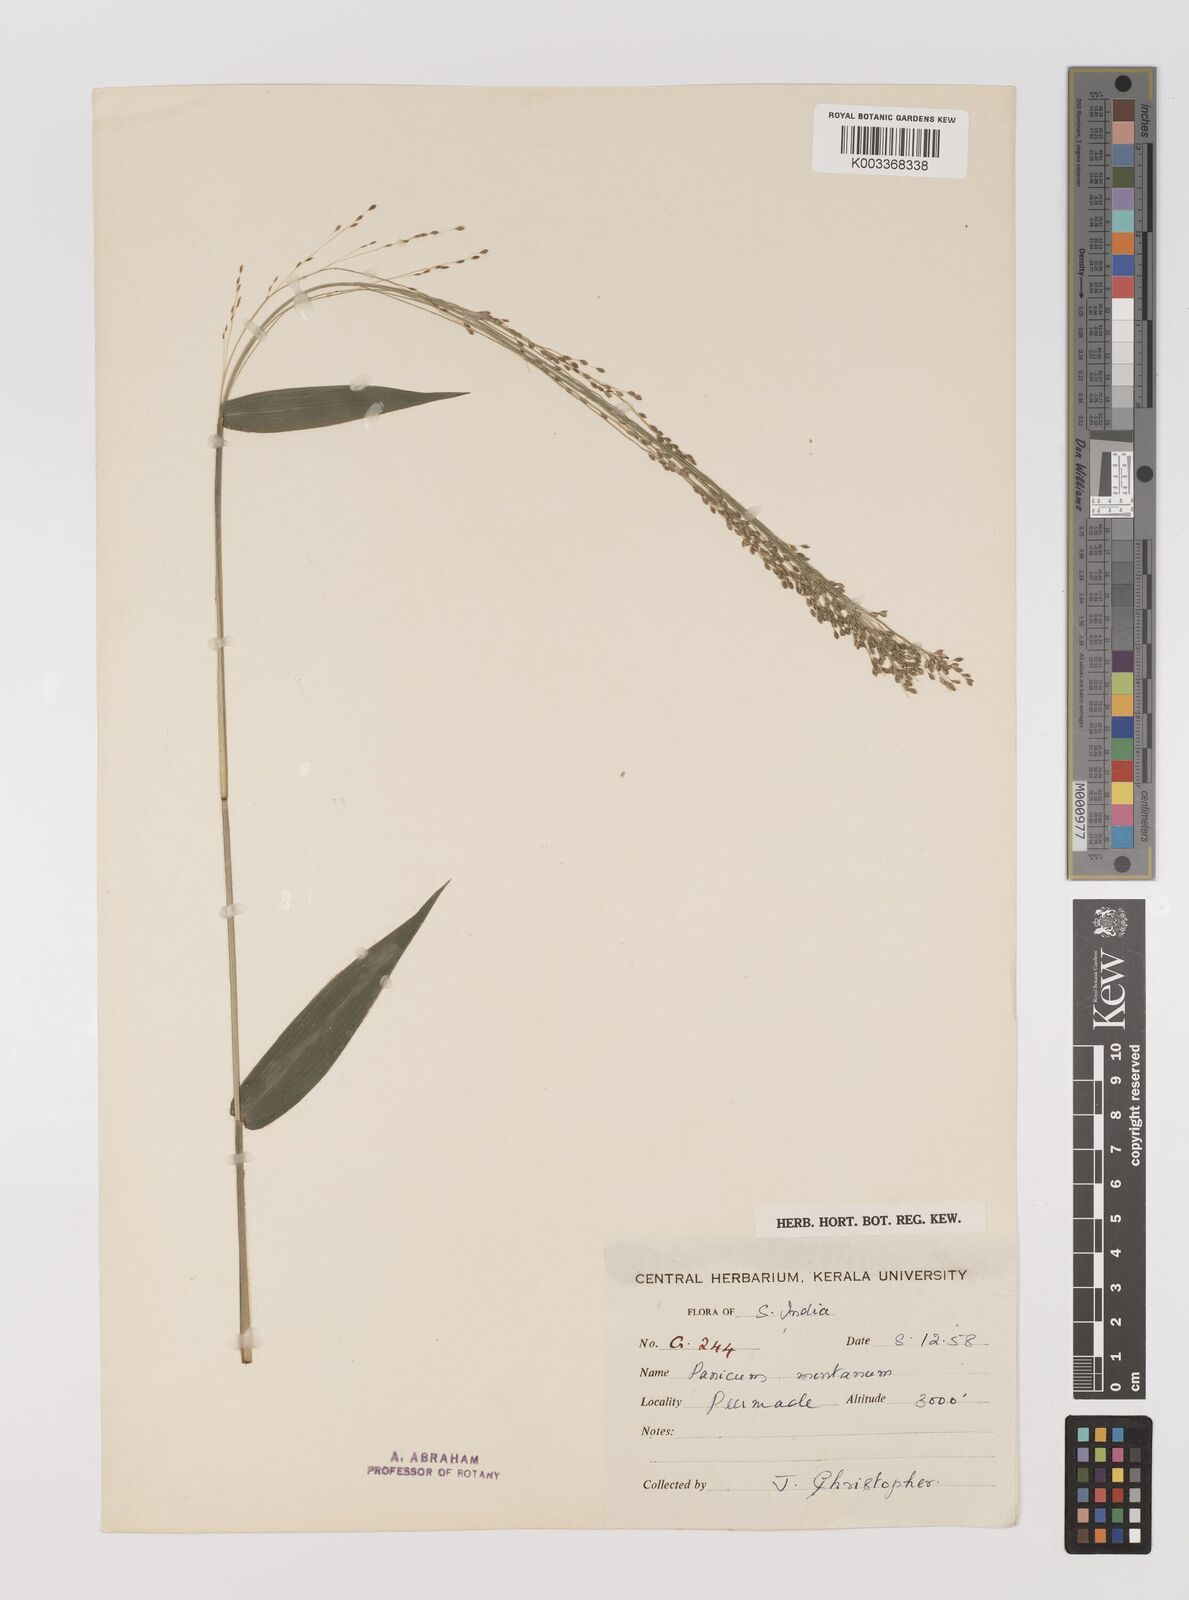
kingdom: Plantae
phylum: Tracheophyta
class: Liliopsida
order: Poales
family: Poaceae
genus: Panicum
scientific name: Panicum notatum
